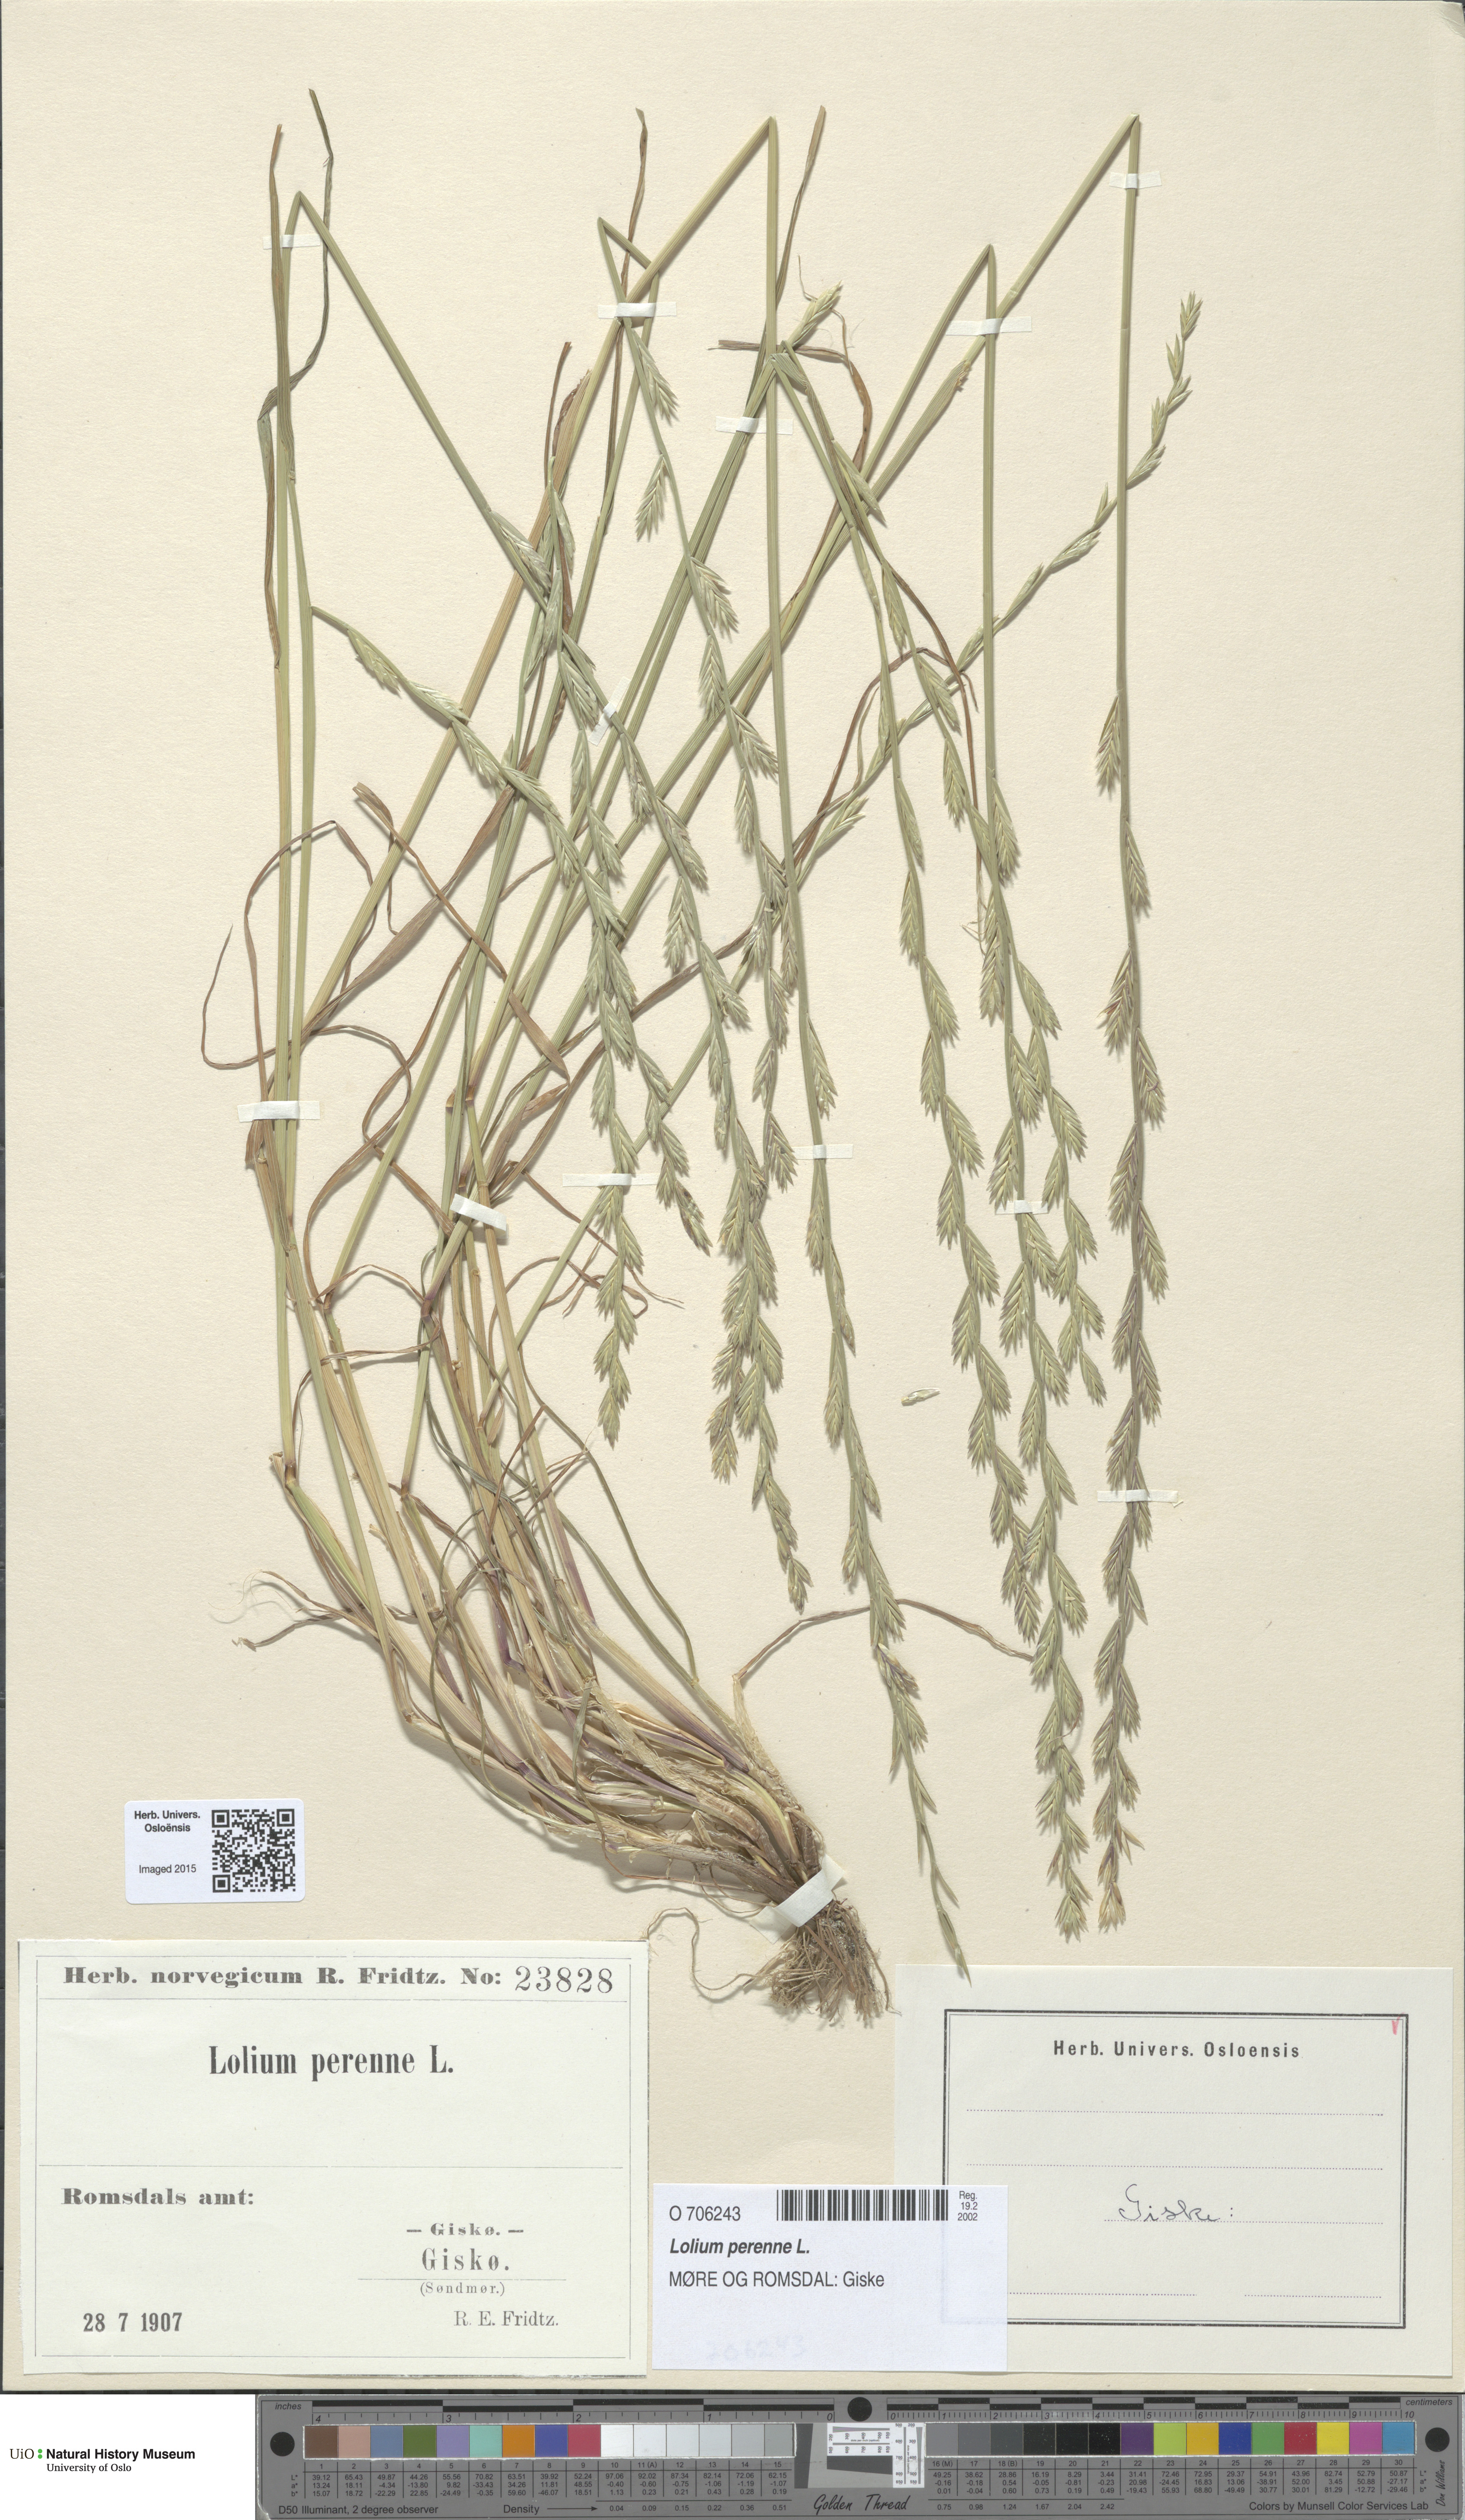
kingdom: Plantae
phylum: Tracheophyta
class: Liliopsida
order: Poales
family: Poaceae
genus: Lolium
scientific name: Lolium perenne
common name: Perennial ryegrass
